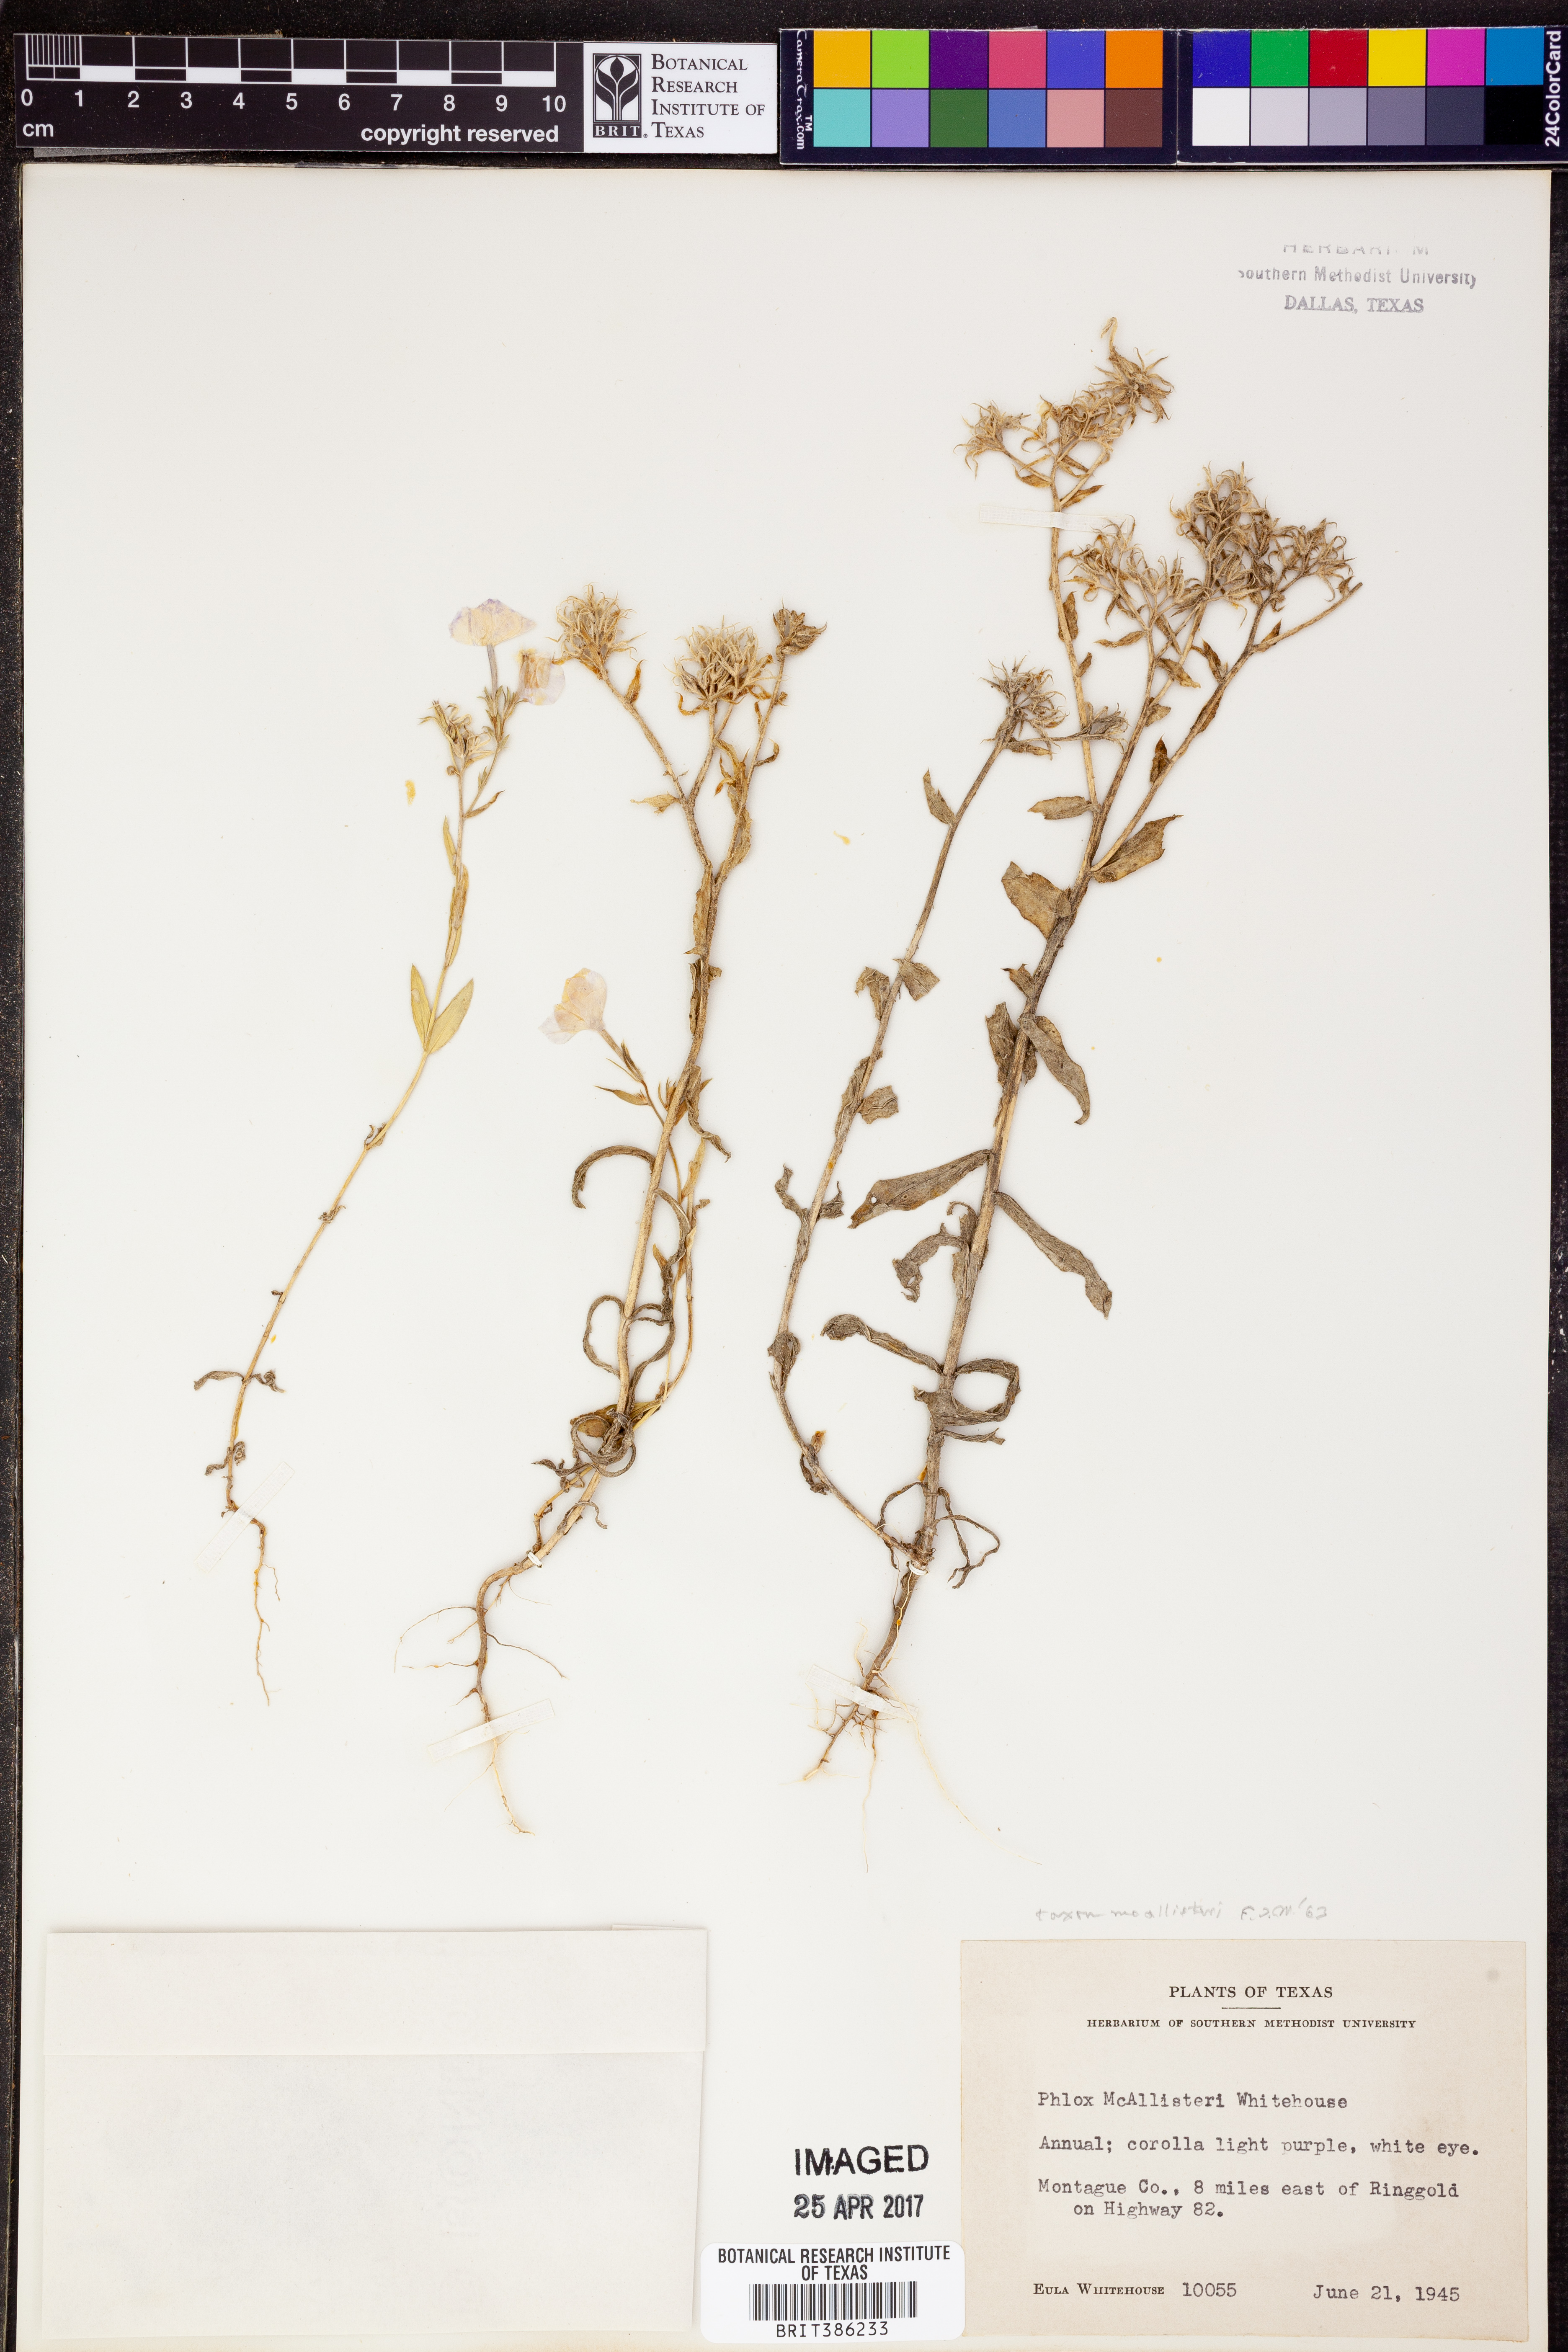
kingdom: Plantae
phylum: Tracheophyta
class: Magnoliopsida
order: Ericales
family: Polemoniaceae
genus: Phlox
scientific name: Phlox drummondii
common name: Drummond's phlox
